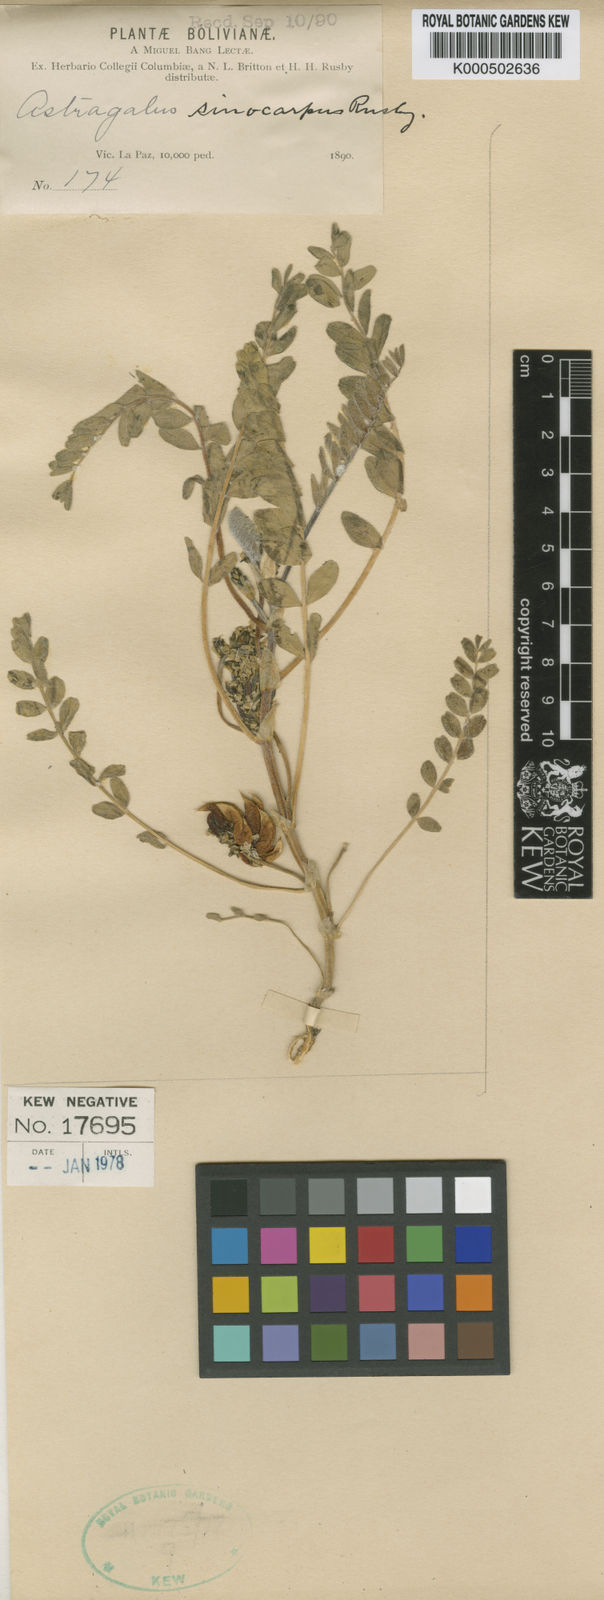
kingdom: Plantae
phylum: Tracheophyta
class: Magnoliopsida
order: Fabales
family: Fabaceae
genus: Astragalus
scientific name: Astragalus arequipensis
